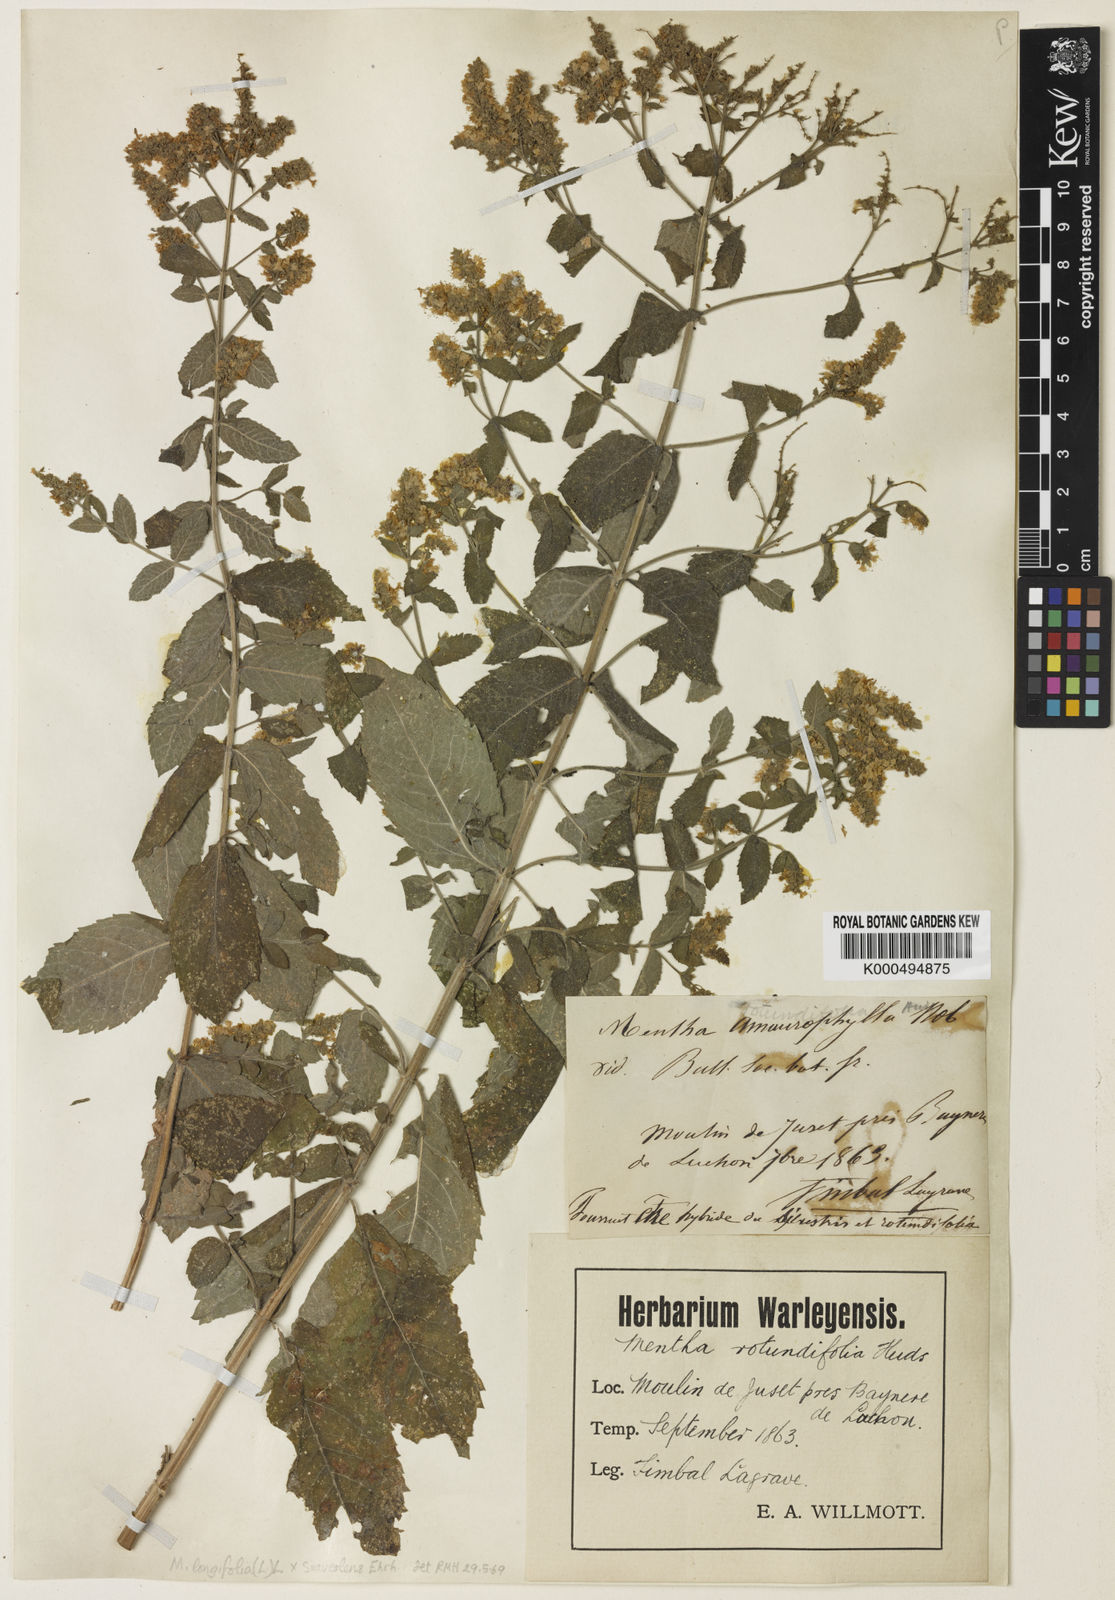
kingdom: Plantae
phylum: Tracheophyta
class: Magnoliopsida
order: Lamiales
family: Lamiaceae
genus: Mentha
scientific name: Mentha rotundifolia
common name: Bigleaf mint
